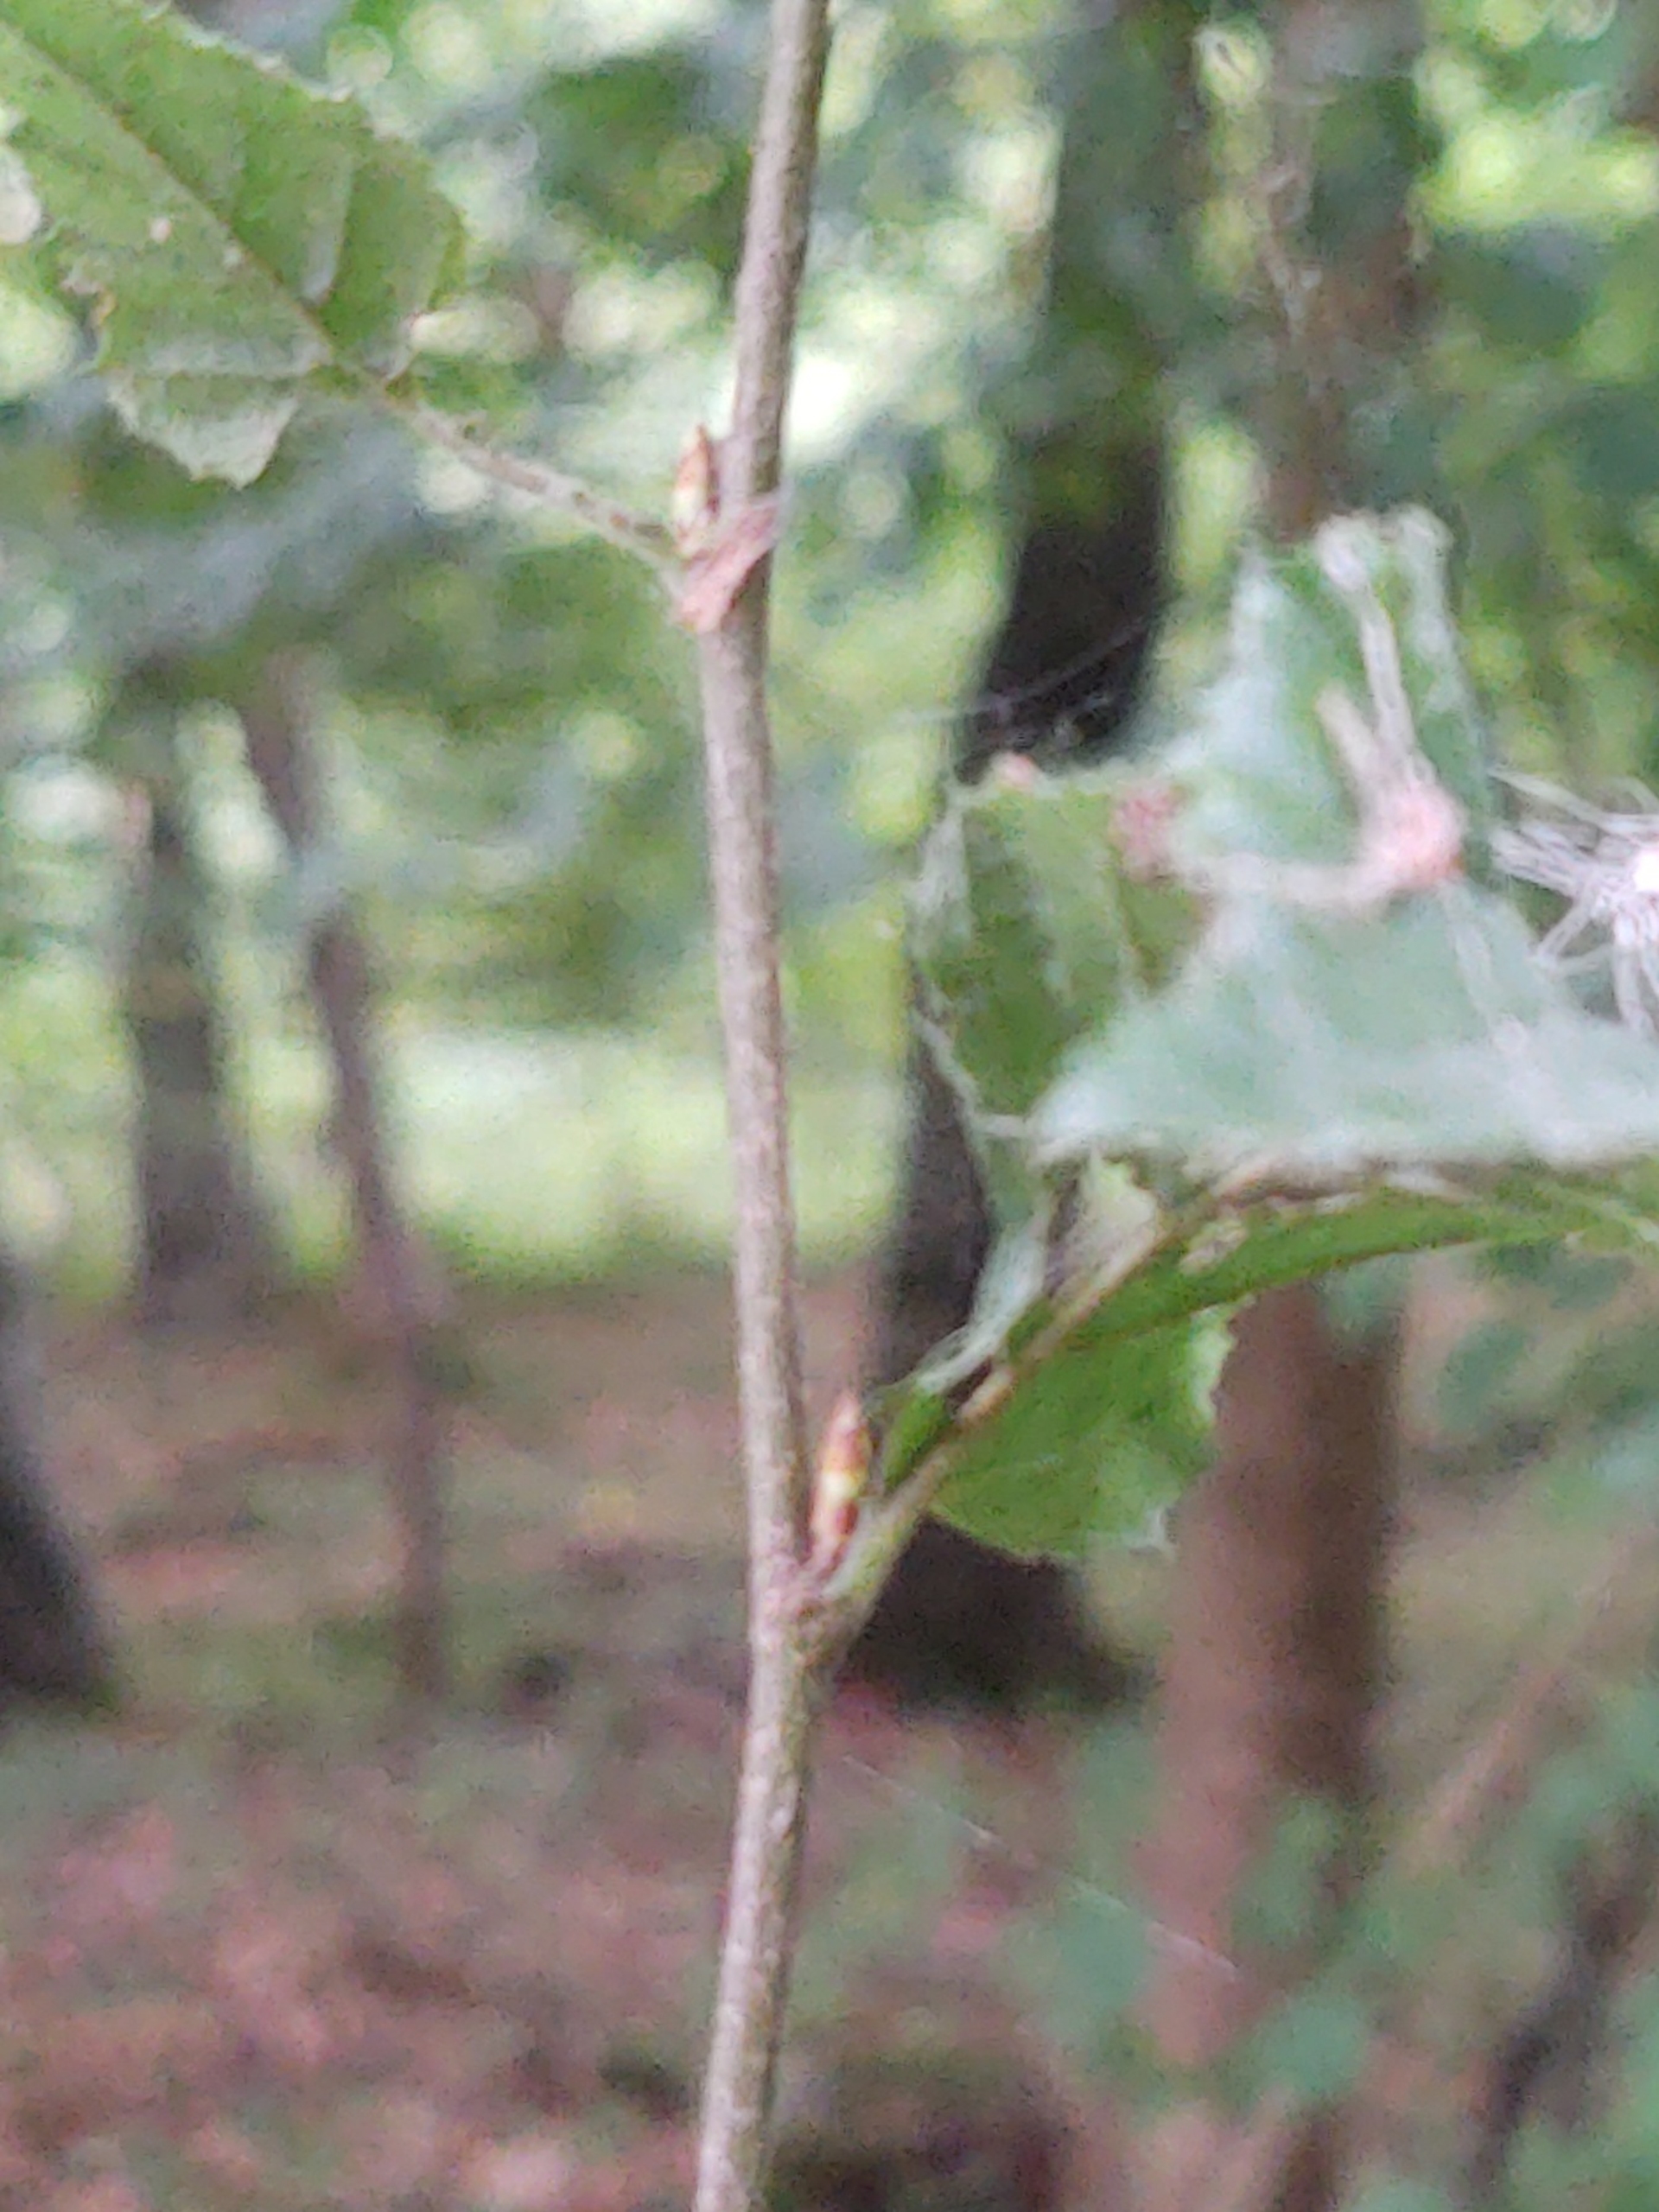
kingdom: Plantae
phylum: Tracheophyta
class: Magnoliopsida
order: Fagales
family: Betulaceae
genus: Carpinus
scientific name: Carpinus betulus
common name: Avnbøg
